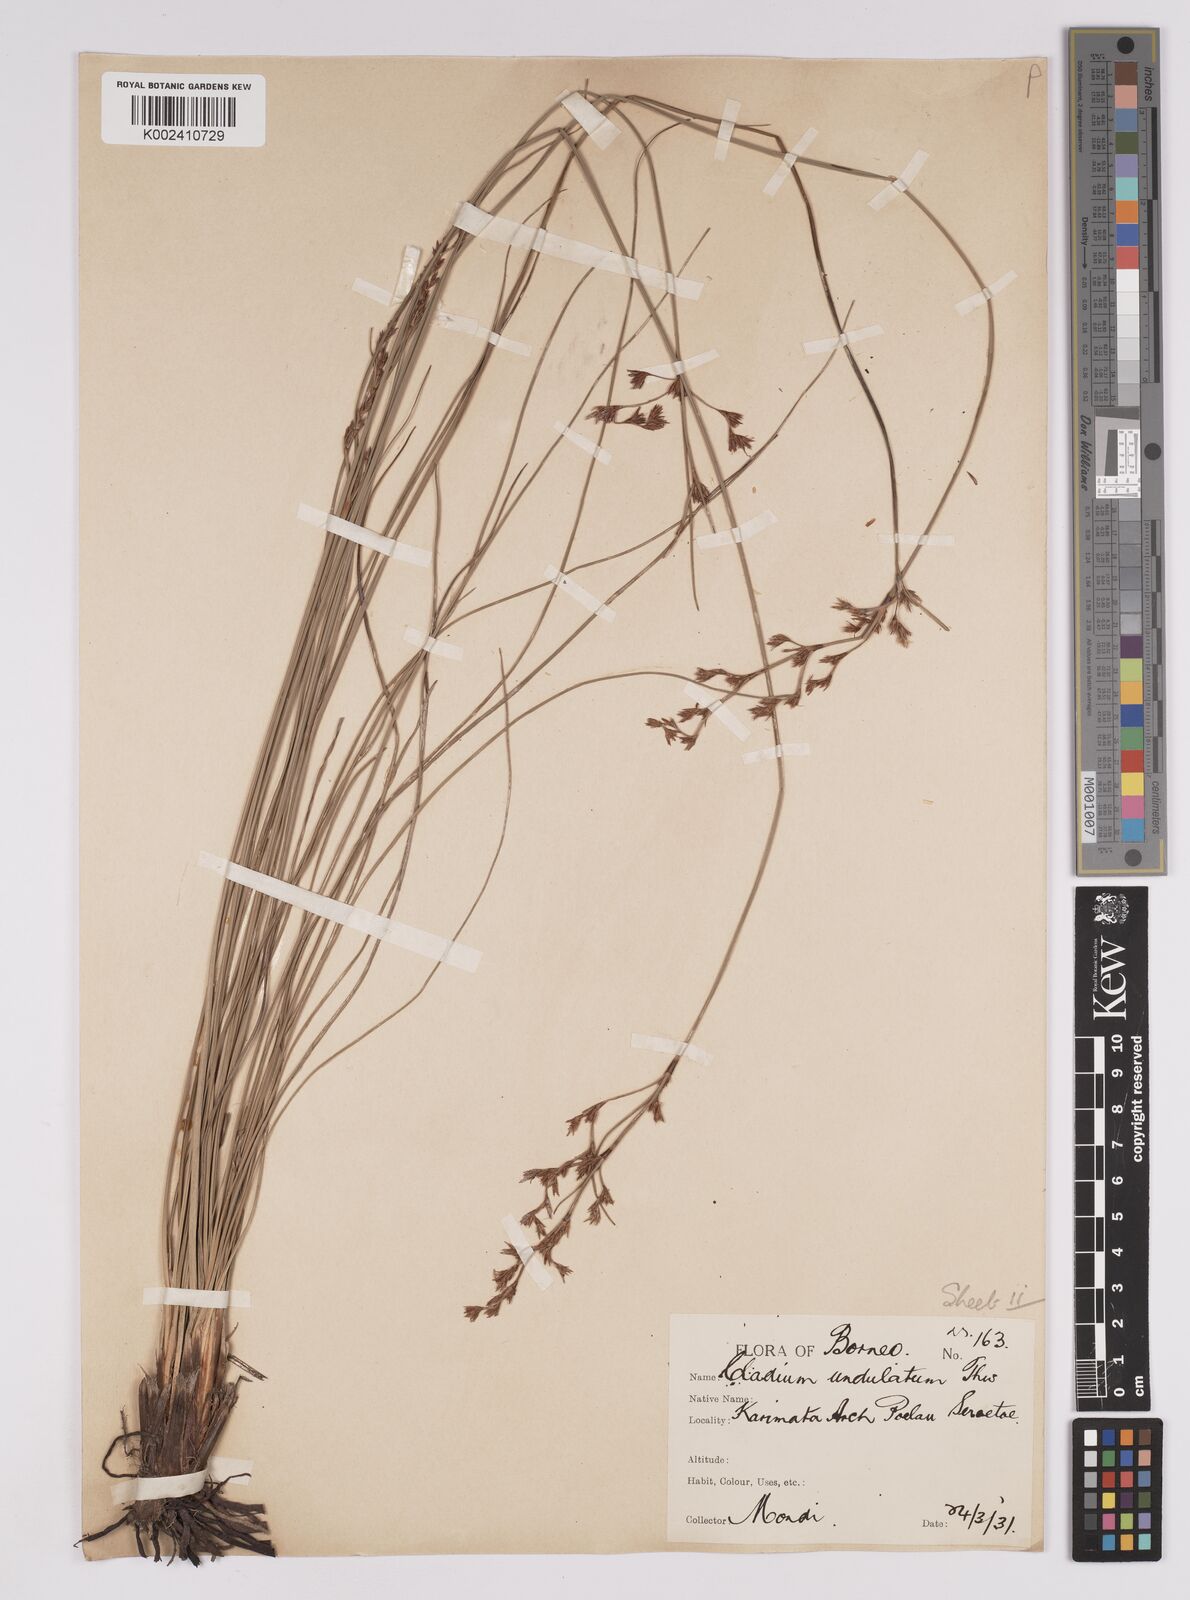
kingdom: Plantae
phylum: Tracheophyta
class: Liliopsida
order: Poales
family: Cyperaceae
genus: Anthelepis
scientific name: Anthelepis undulata
